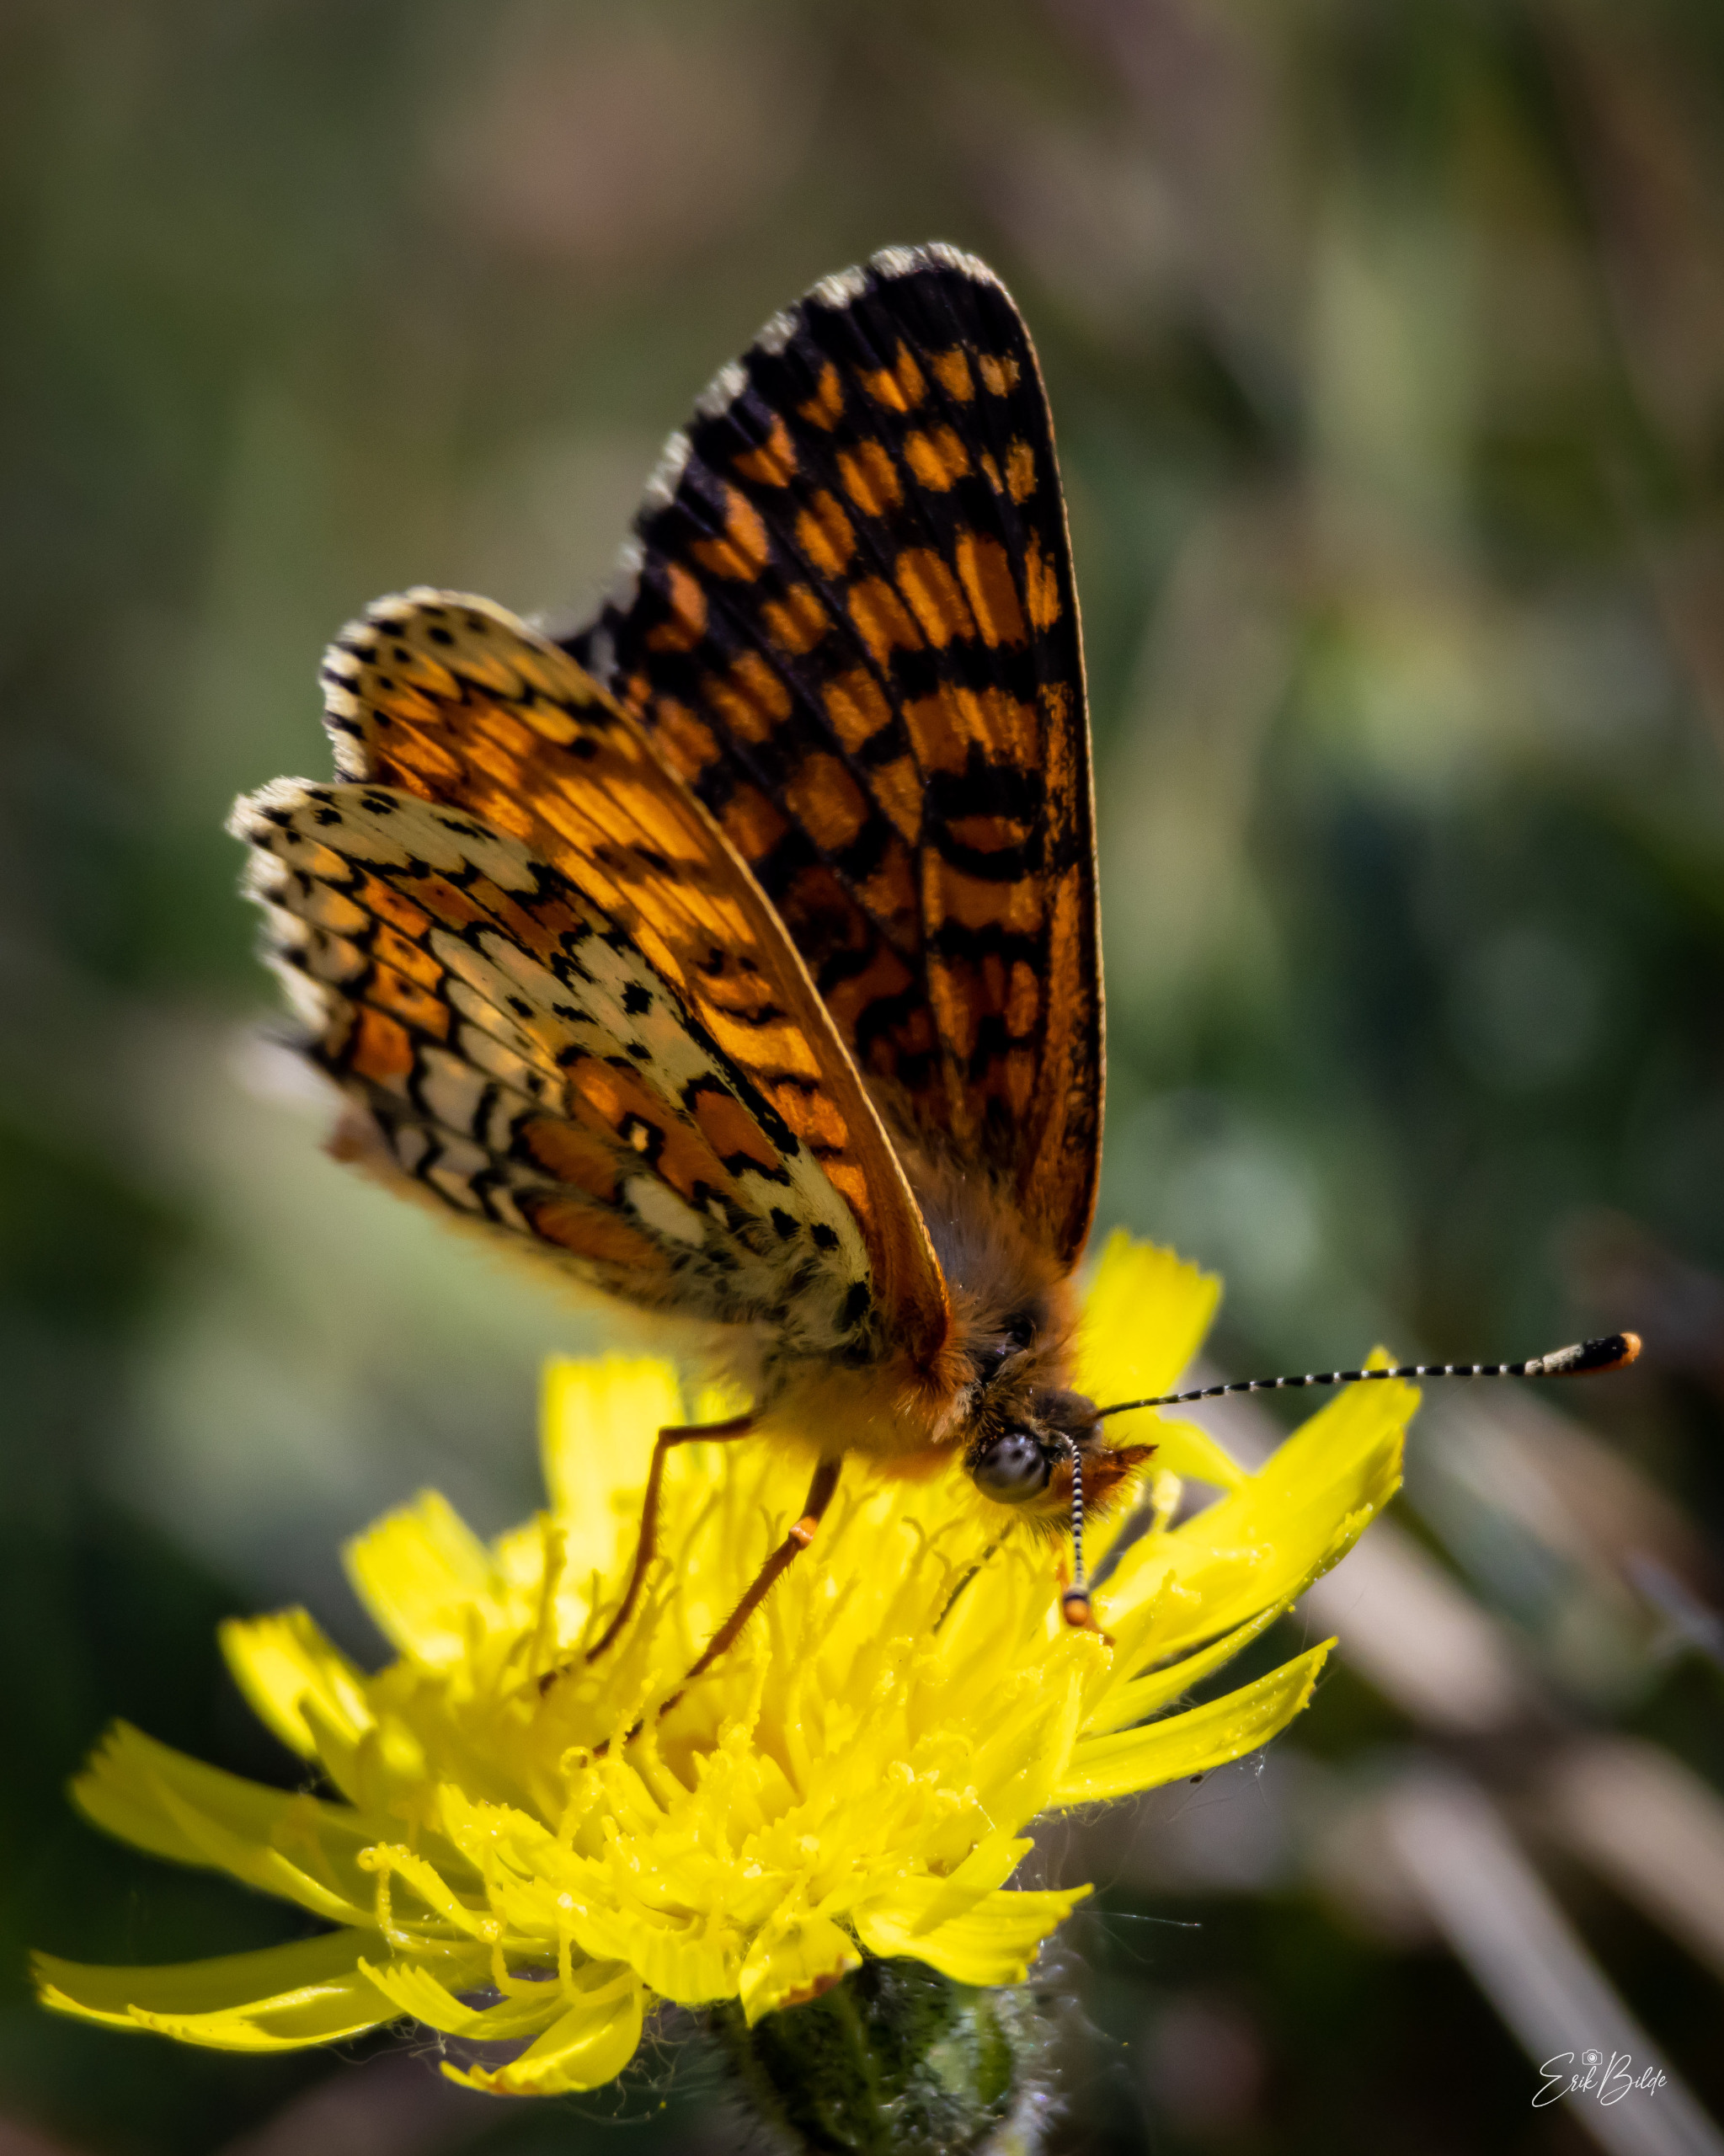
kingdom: Animalia
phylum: Arthropoda
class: Insecta
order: Lepidoptera
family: Nymphalidae
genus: Melitaea
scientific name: Melitaea cinxia
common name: Okkergul pletvinge
